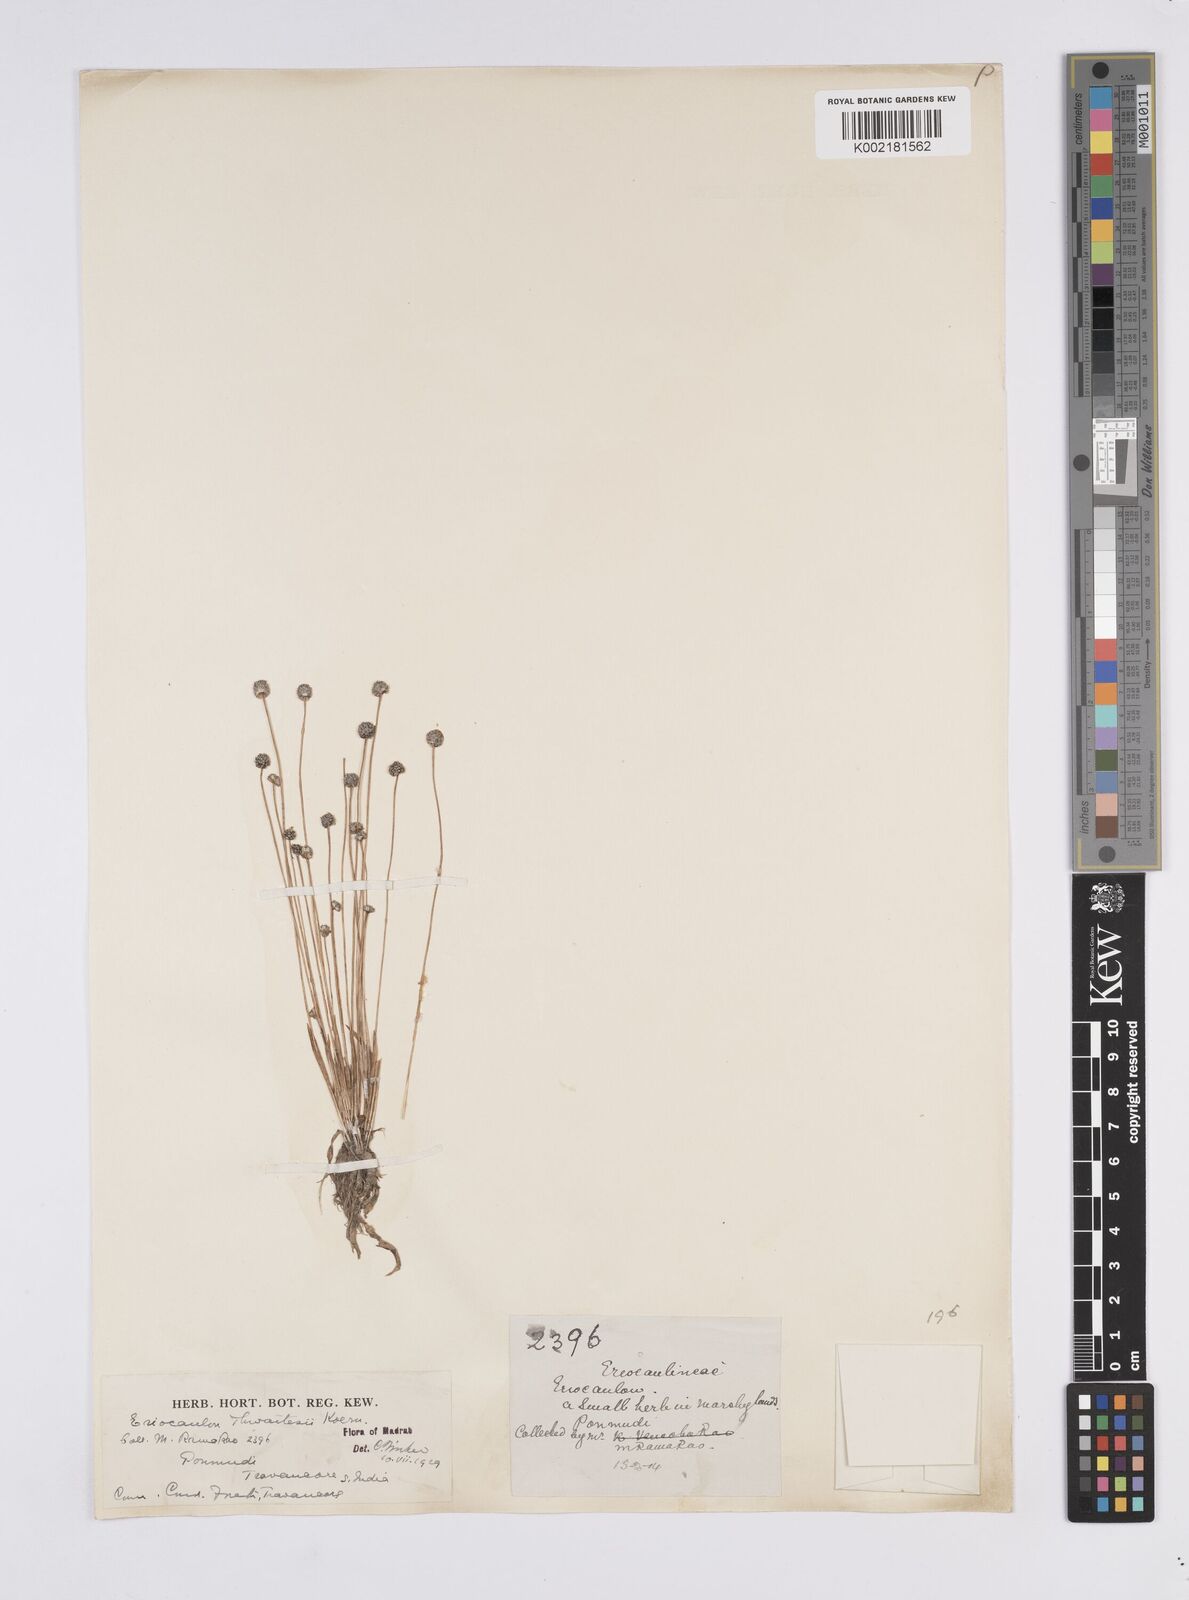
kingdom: Plantae
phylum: Tracheophyta
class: Liliopsida
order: Poales
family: Eriocaulaceae
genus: Eriocaulon
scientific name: Eriocaulon thwaitesii
